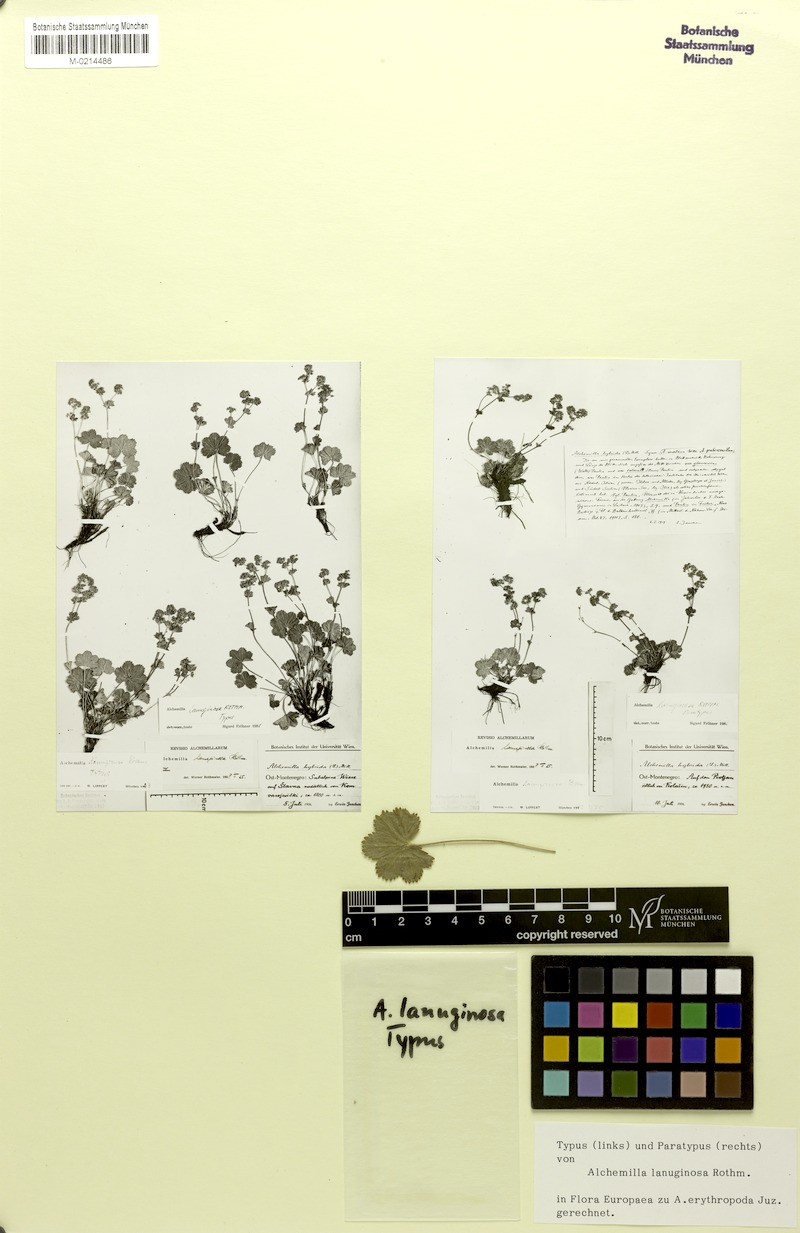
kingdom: Plantae
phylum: Tracheophyta
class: Magnoliopsida
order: Rosales
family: Rosaceae
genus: Alchemilla
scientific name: Alchemilla lanuginosa
